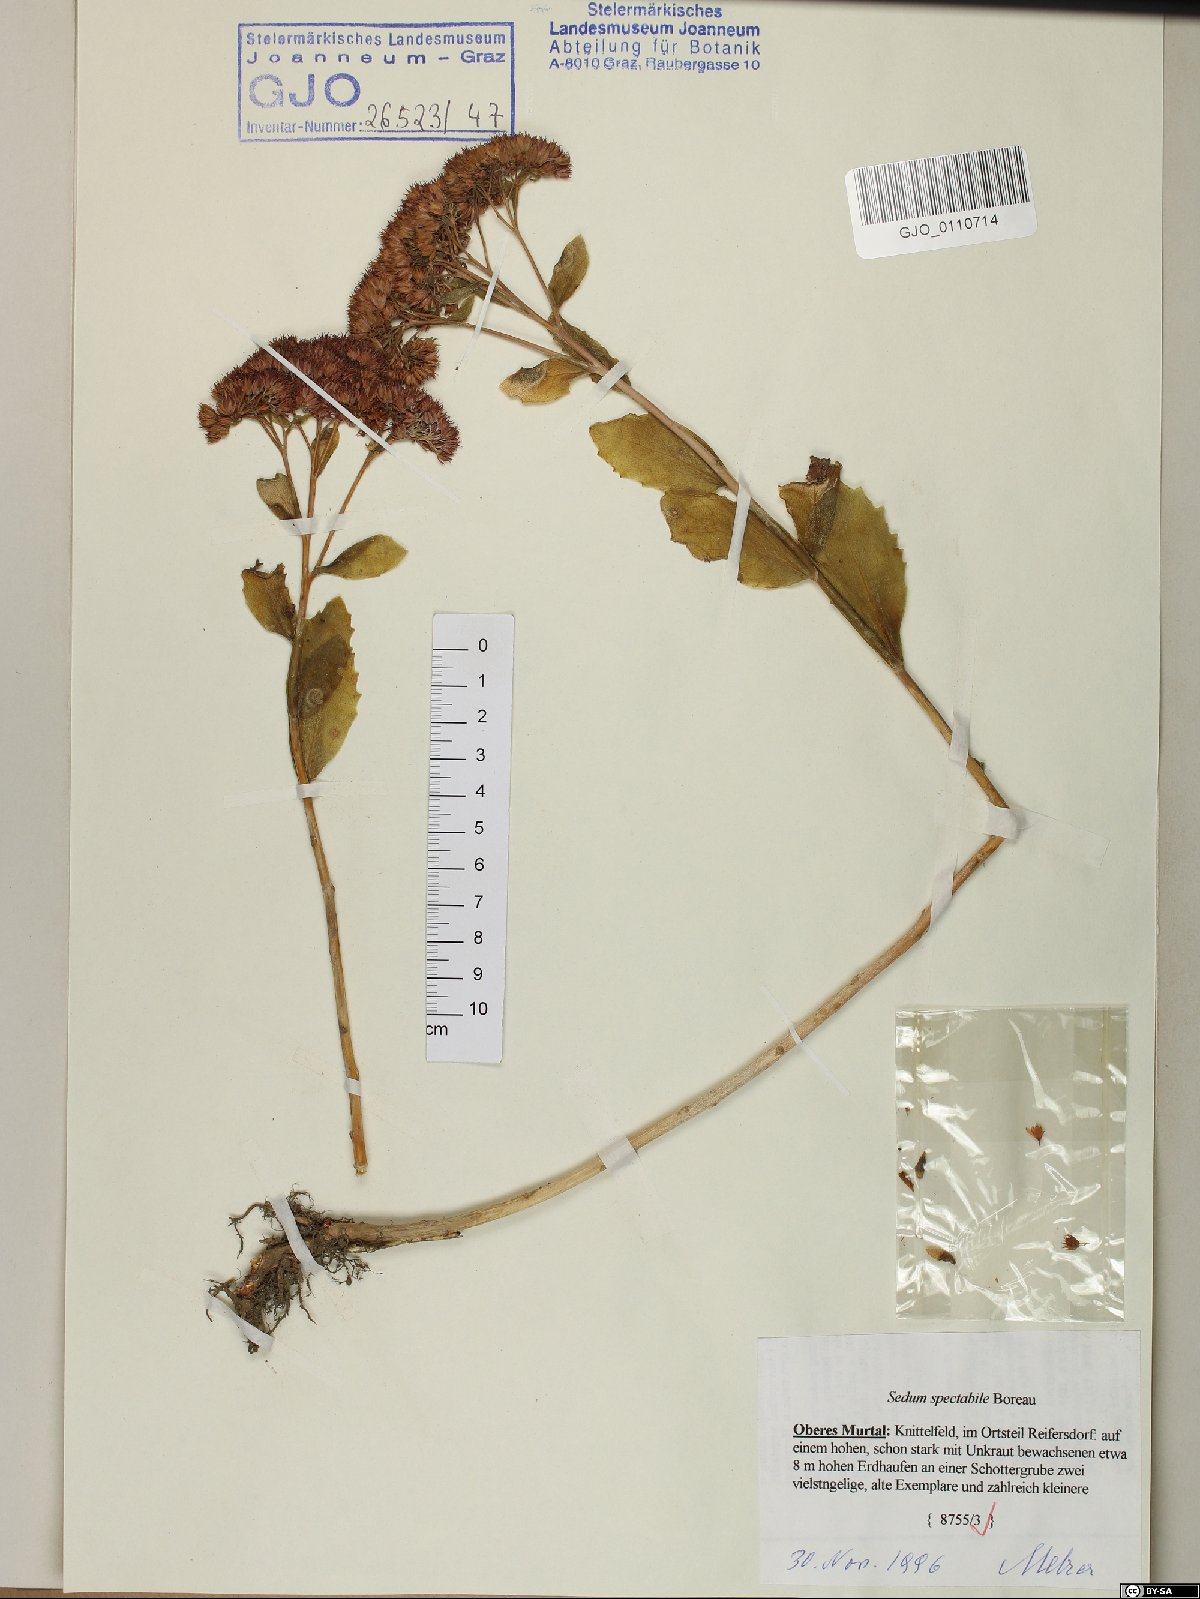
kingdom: Plantae
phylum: Tracheophyta
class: Magnoliopsida
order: Saxifragales
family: Crassulaceae
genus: Hylotelephium
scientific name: Hylotelephium spectabile
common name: Showy stonecrop
